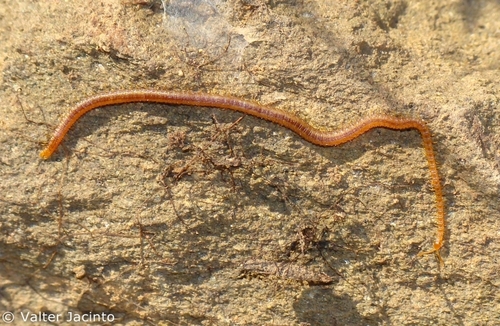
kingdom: Animalia
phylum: Arthropoda
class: Chilopoda
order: Geophilomorpha
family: Linotaeniidae
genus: Strigamia
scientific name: Strigamia acuminata
